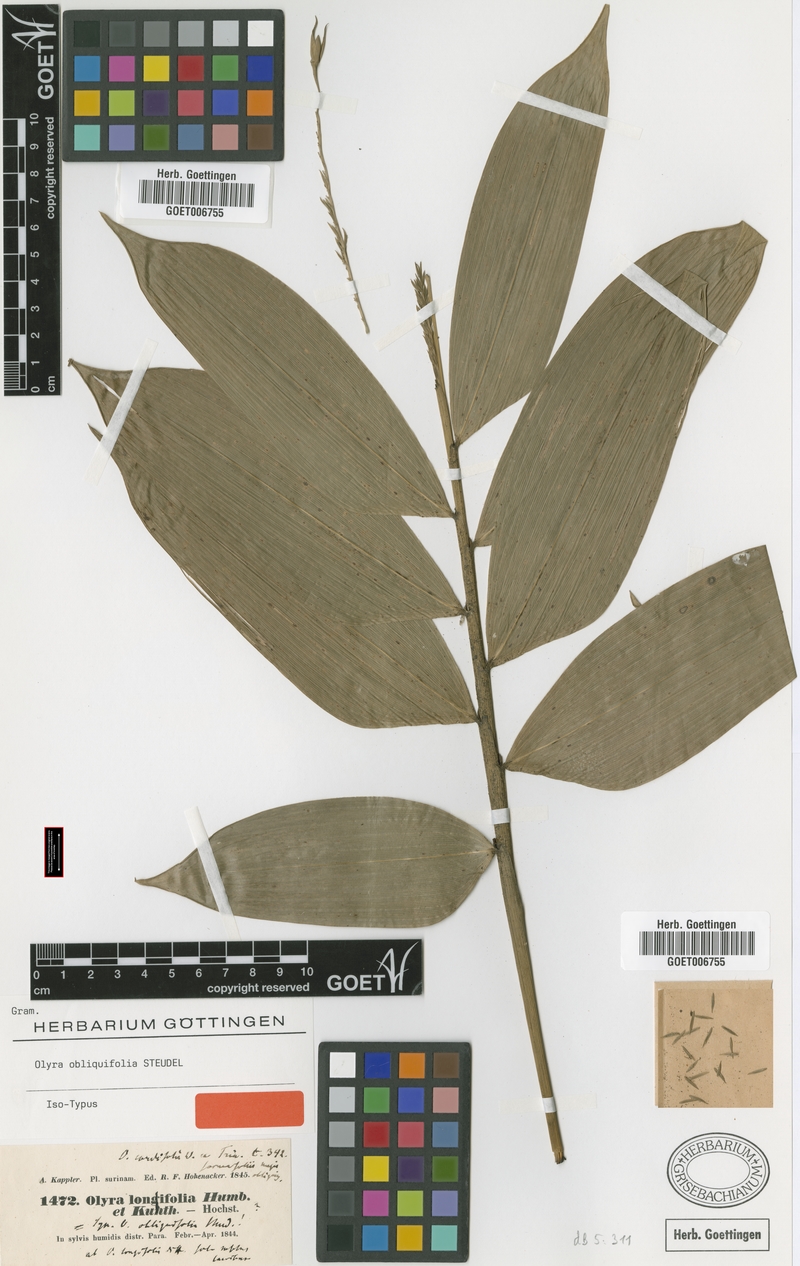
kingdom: Plantae
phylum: Tracheophyta
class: Liliopsida
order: Poales
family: Poaceae
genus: Olyra
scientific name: Olyra obliquifolia
